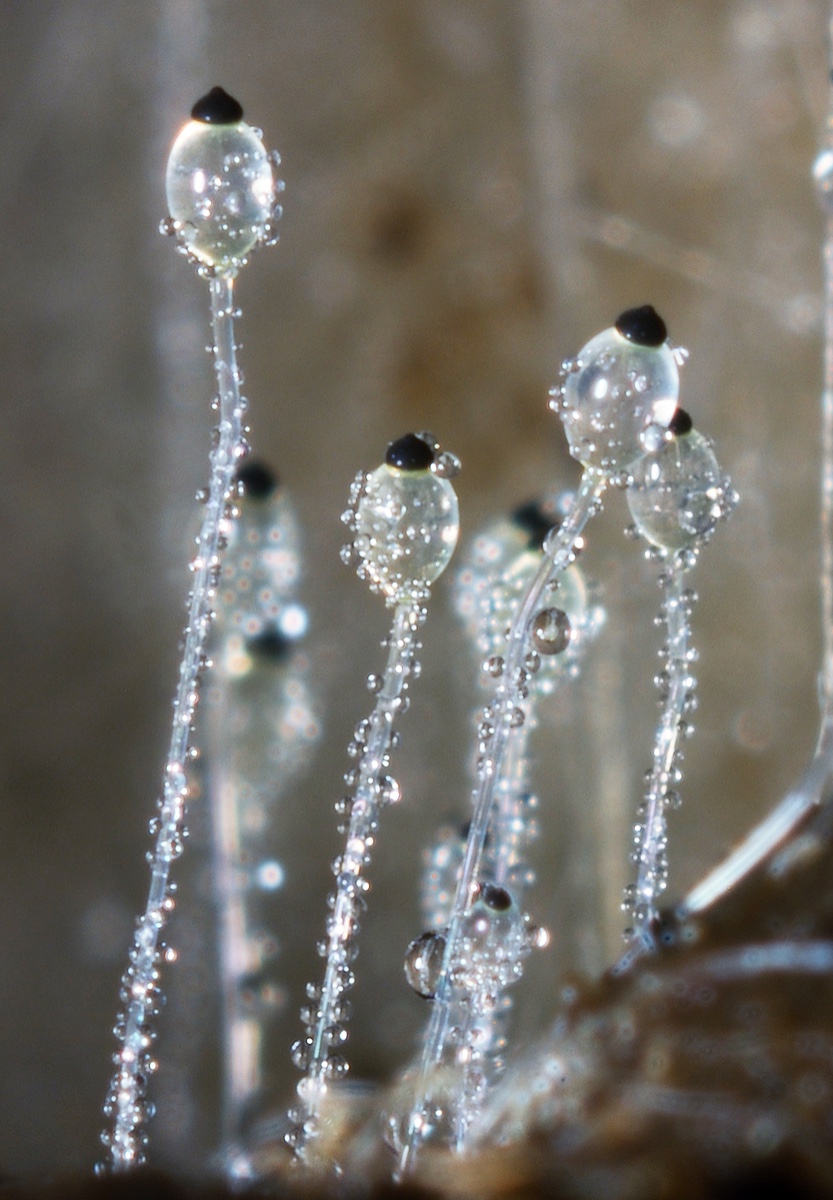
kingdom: Fungi
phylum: Mucoromycota
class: Mucoromycetes
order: Mucorales
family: Pilobolaceae
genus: Pilobolus
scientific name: Pilobolus umbonatus
